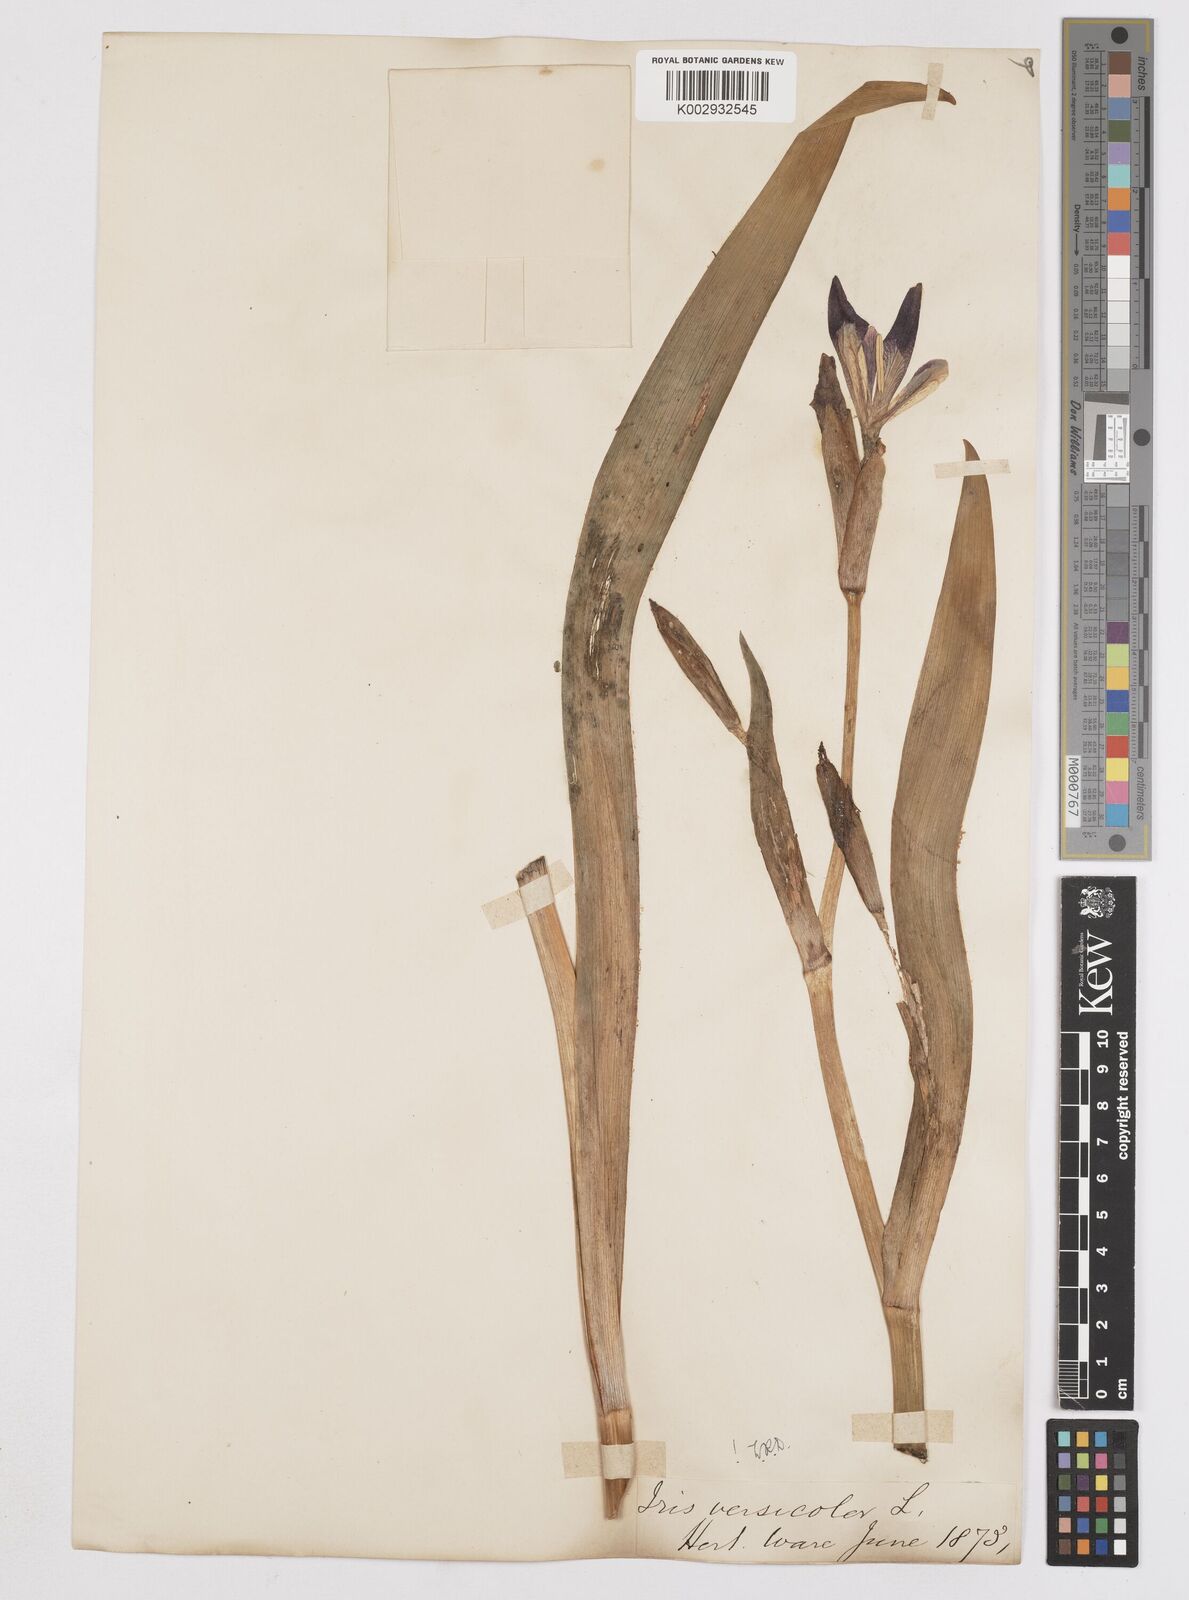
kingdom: Plantae
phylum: Tracheophyta
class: Liliopsida
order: Asparagales
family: Iridaceae
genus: Iris
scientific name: Iris versicolor
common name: Purple iris
